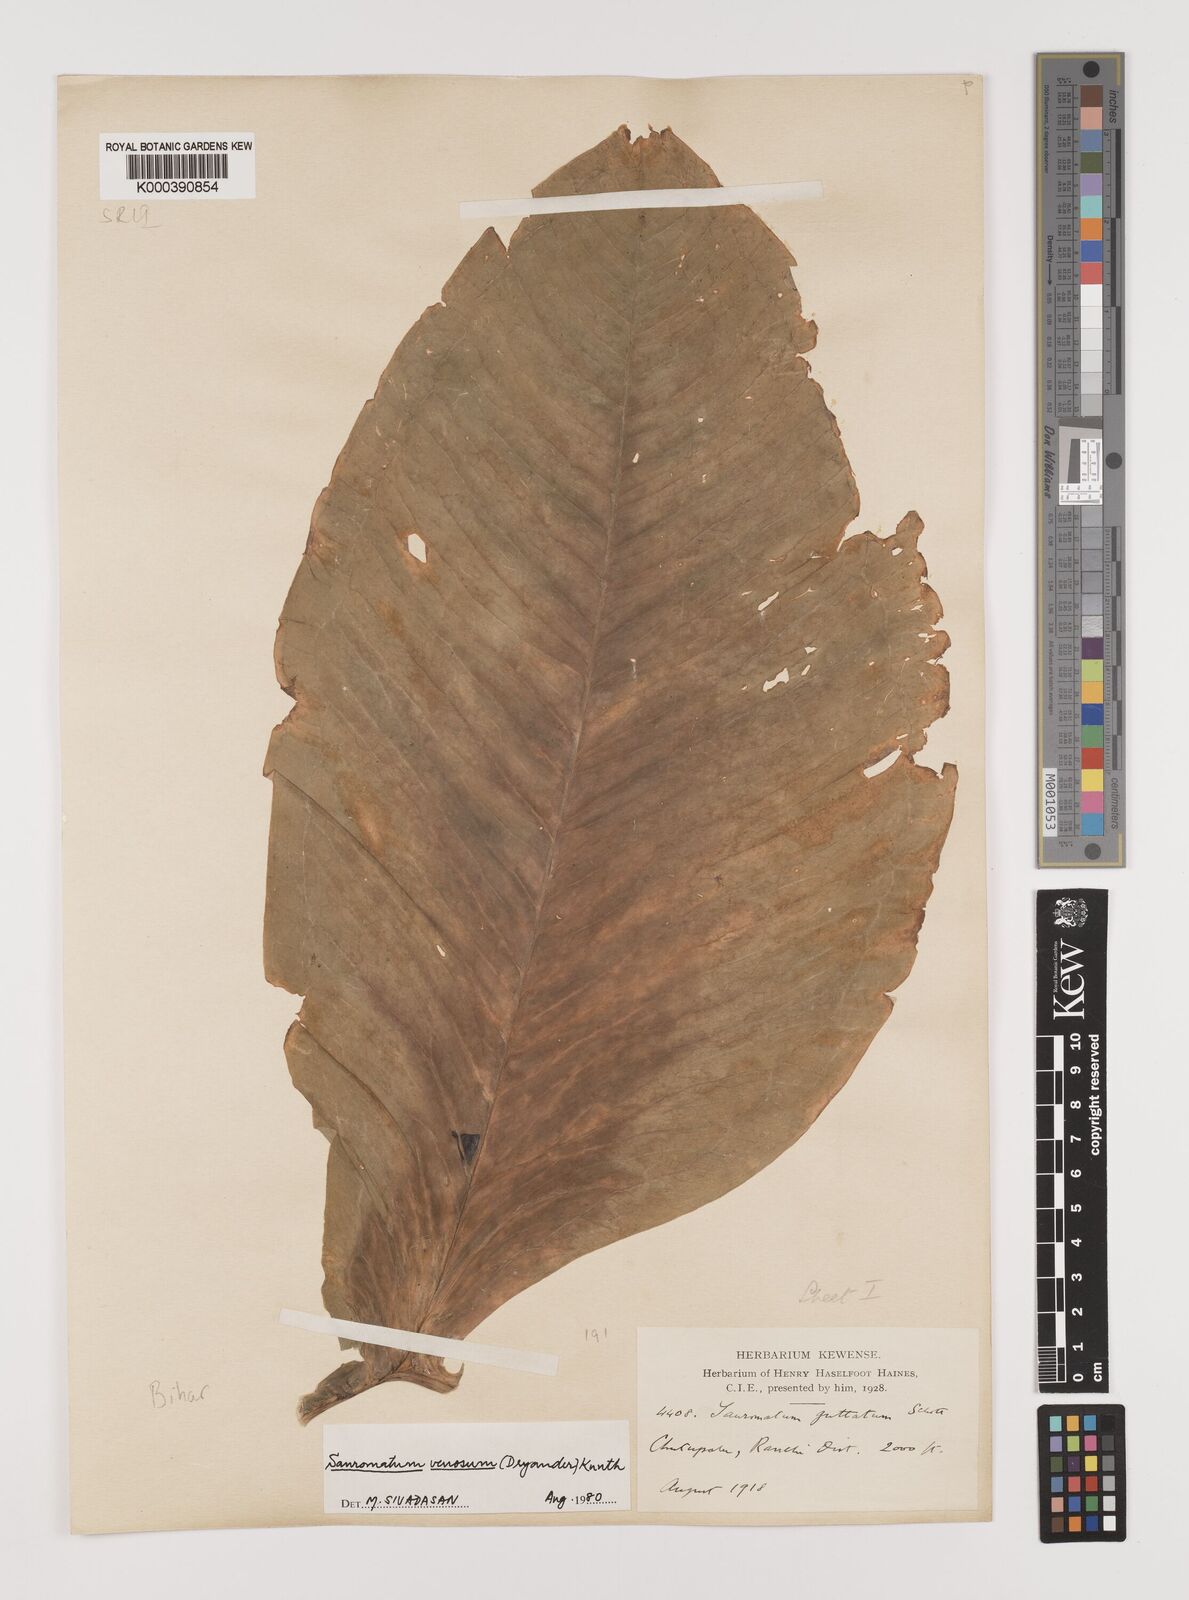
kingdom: Plantae
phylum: Tracheophyta
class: Liliopsida
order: Alismatales
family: Araceae
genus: Sauromatum
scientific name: Sauromatum venosum
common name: Voodoo lily
